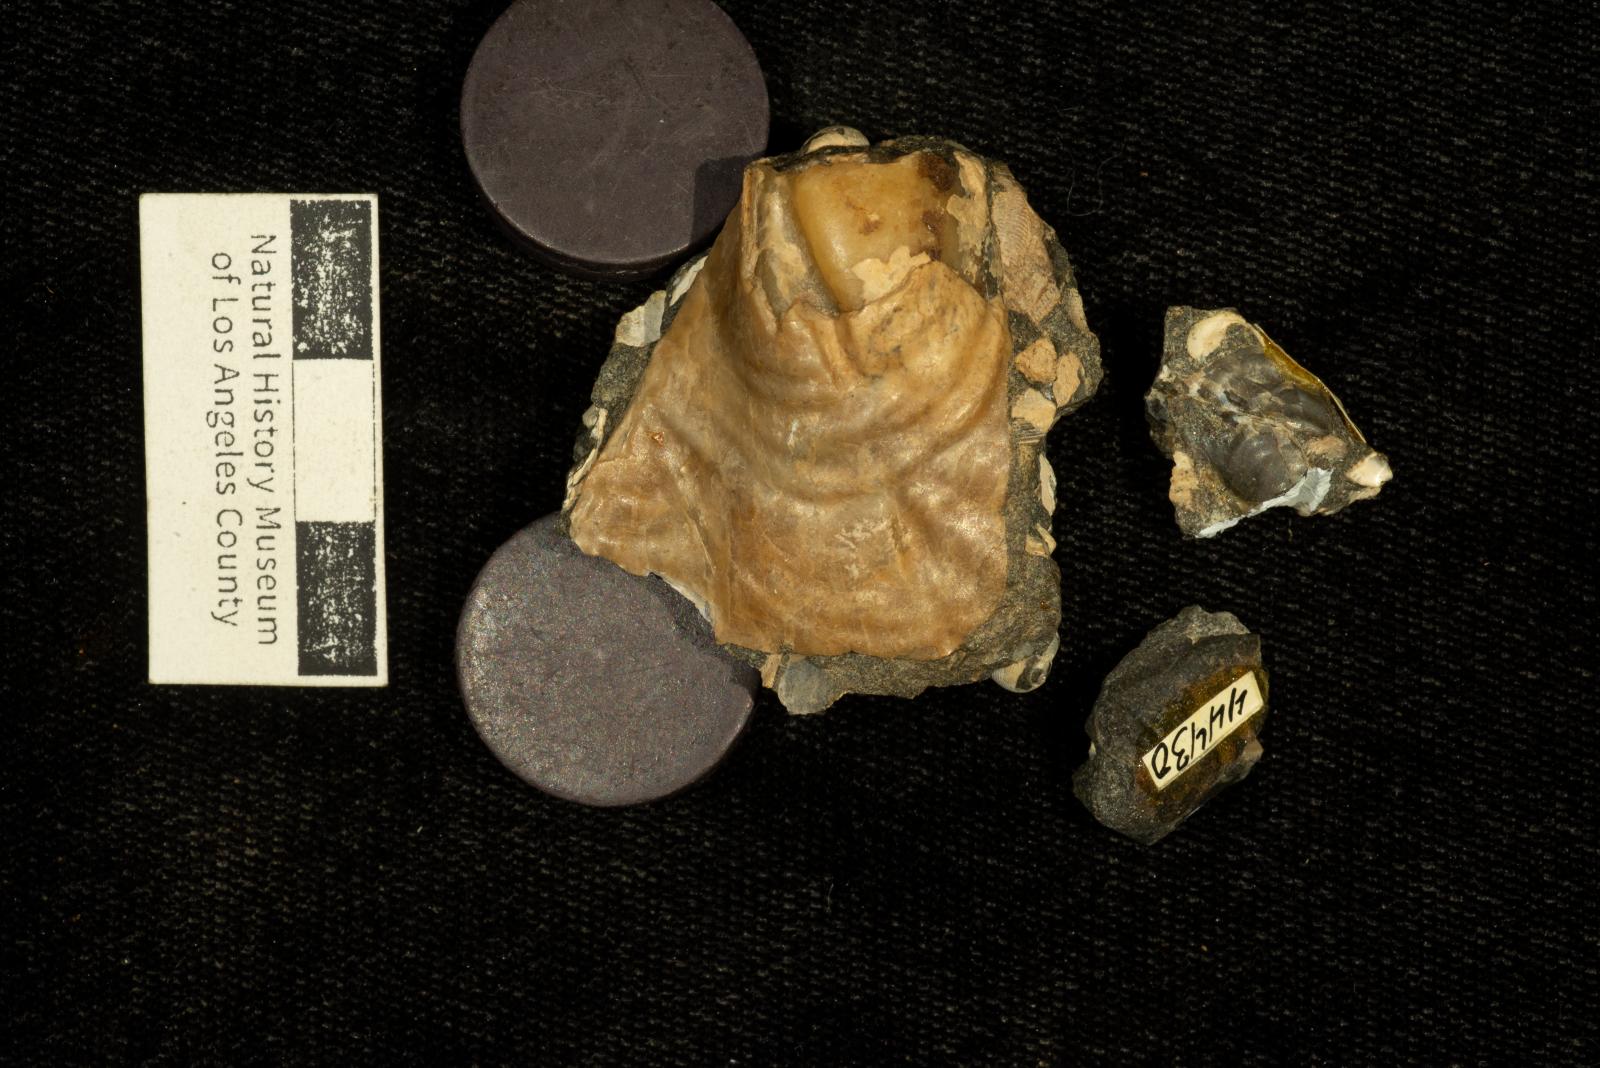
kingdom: Animalia
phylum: Mollusca
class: Bivalvia
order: Myalinida
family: Inoceramidae
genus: Inoceramus
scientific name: Inoceramus
